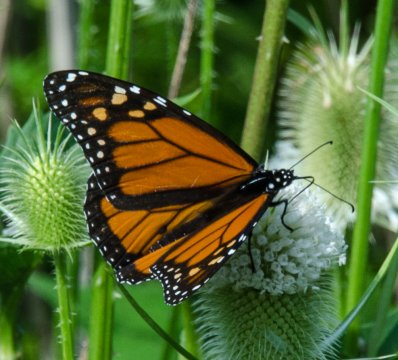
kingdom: Animalia
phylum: Arthropoda
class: Insecta
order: Lepidoptera
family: Nymphalidae
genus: Danaus
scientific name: Danaus plexippus
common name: Monarch
